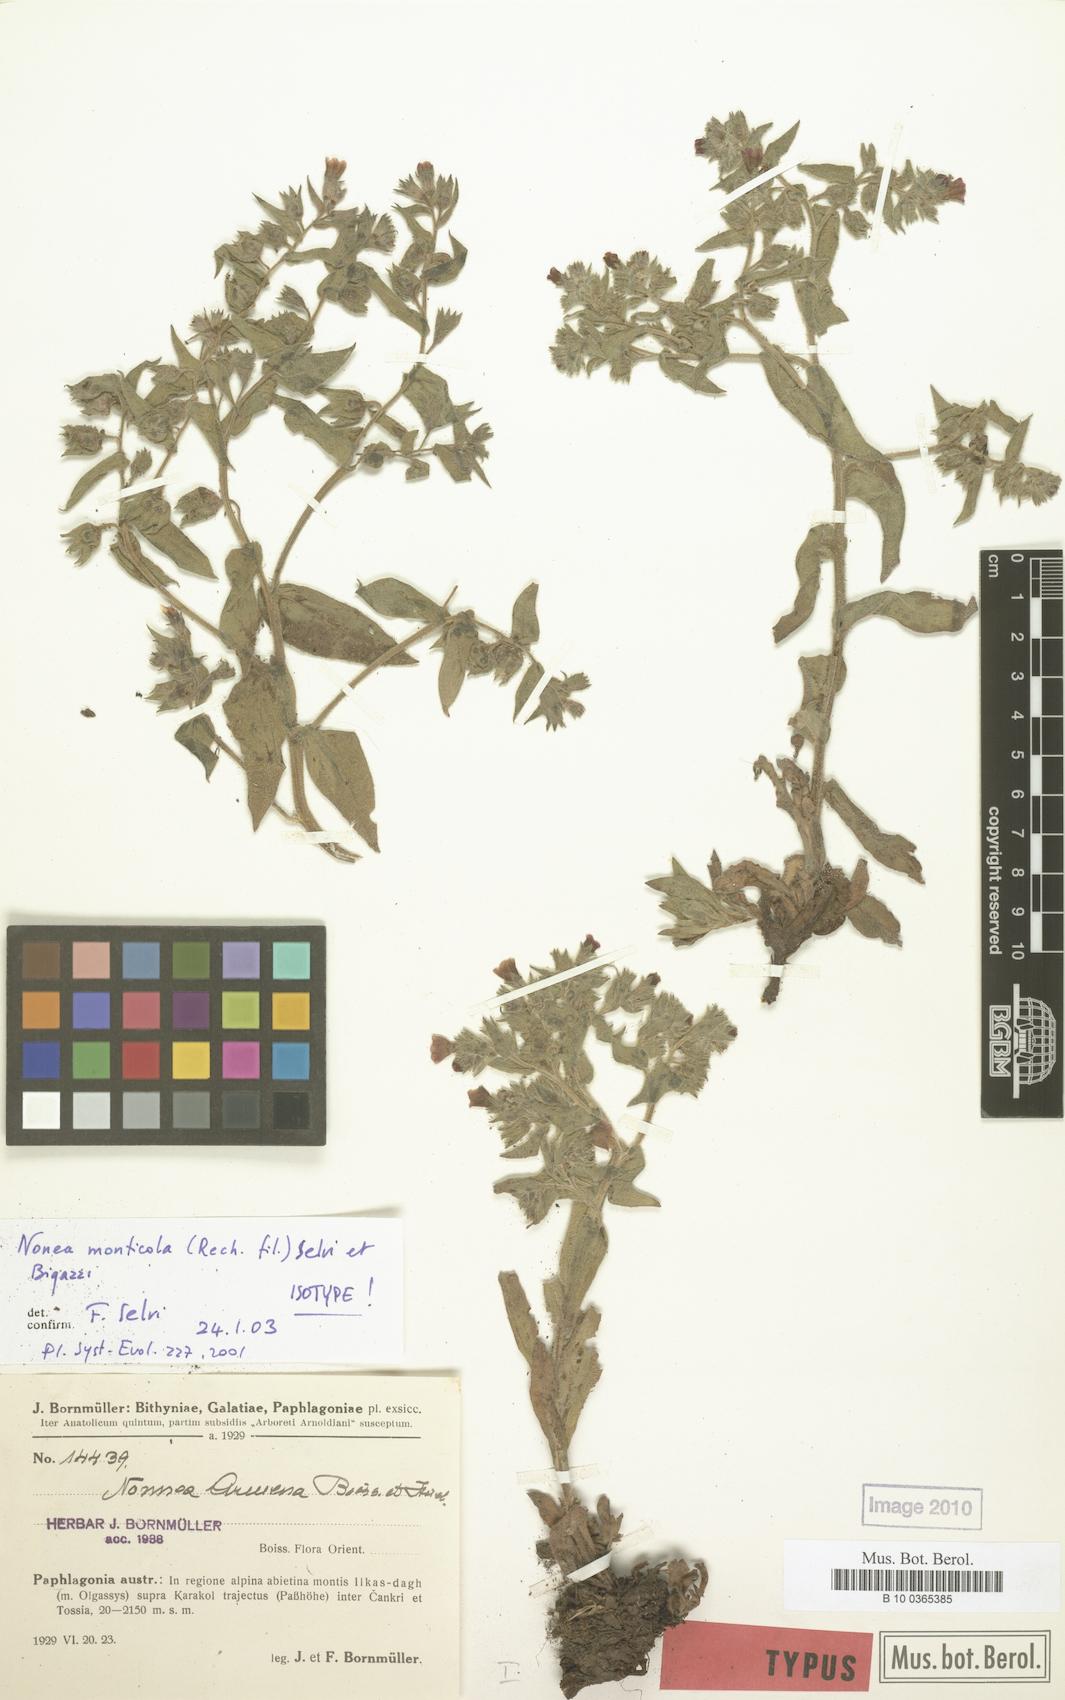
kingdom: Plantae
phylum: Tracheophyta
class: Magnoliopsida
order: Boraginales
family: Boraginaceae
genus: Nonea
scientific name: Nonea monticola
